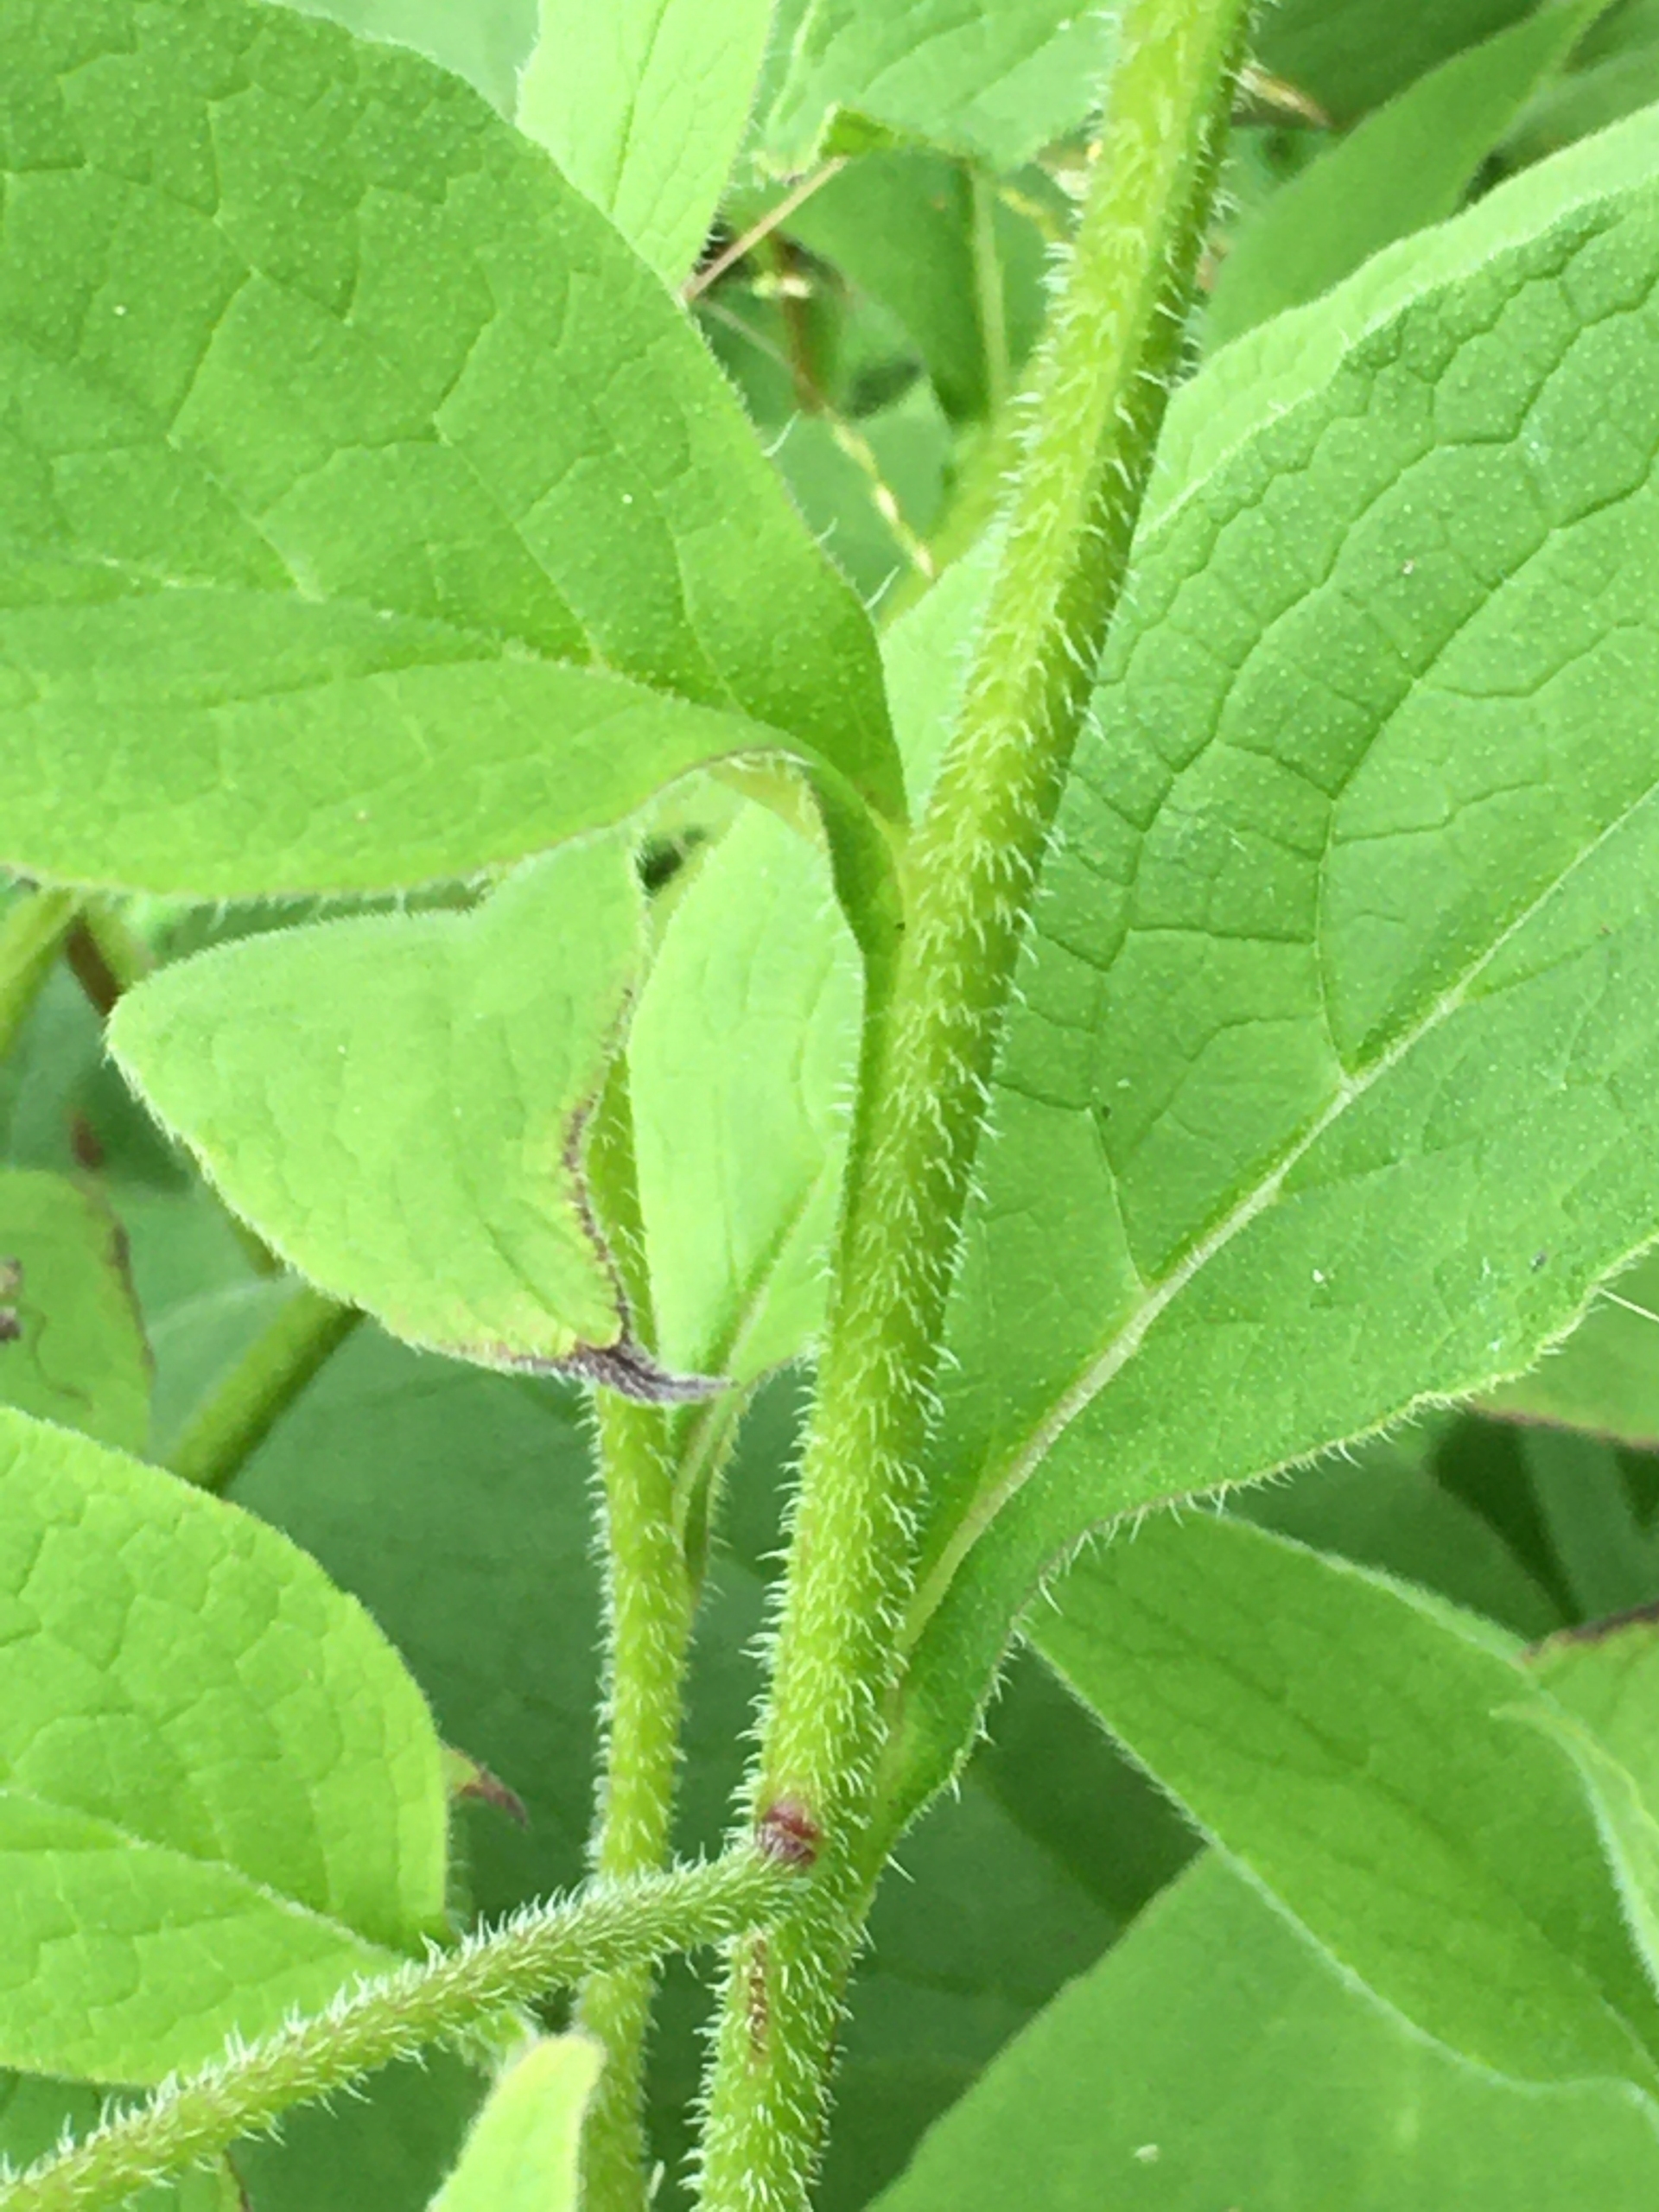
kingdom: Plantae
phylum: Tracheophyta
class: Magnoliopsida
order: Boraginales
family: Boraginaceae
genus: Symphytum
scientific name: Symphytum uplandicum
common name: Foder-kulsukker
